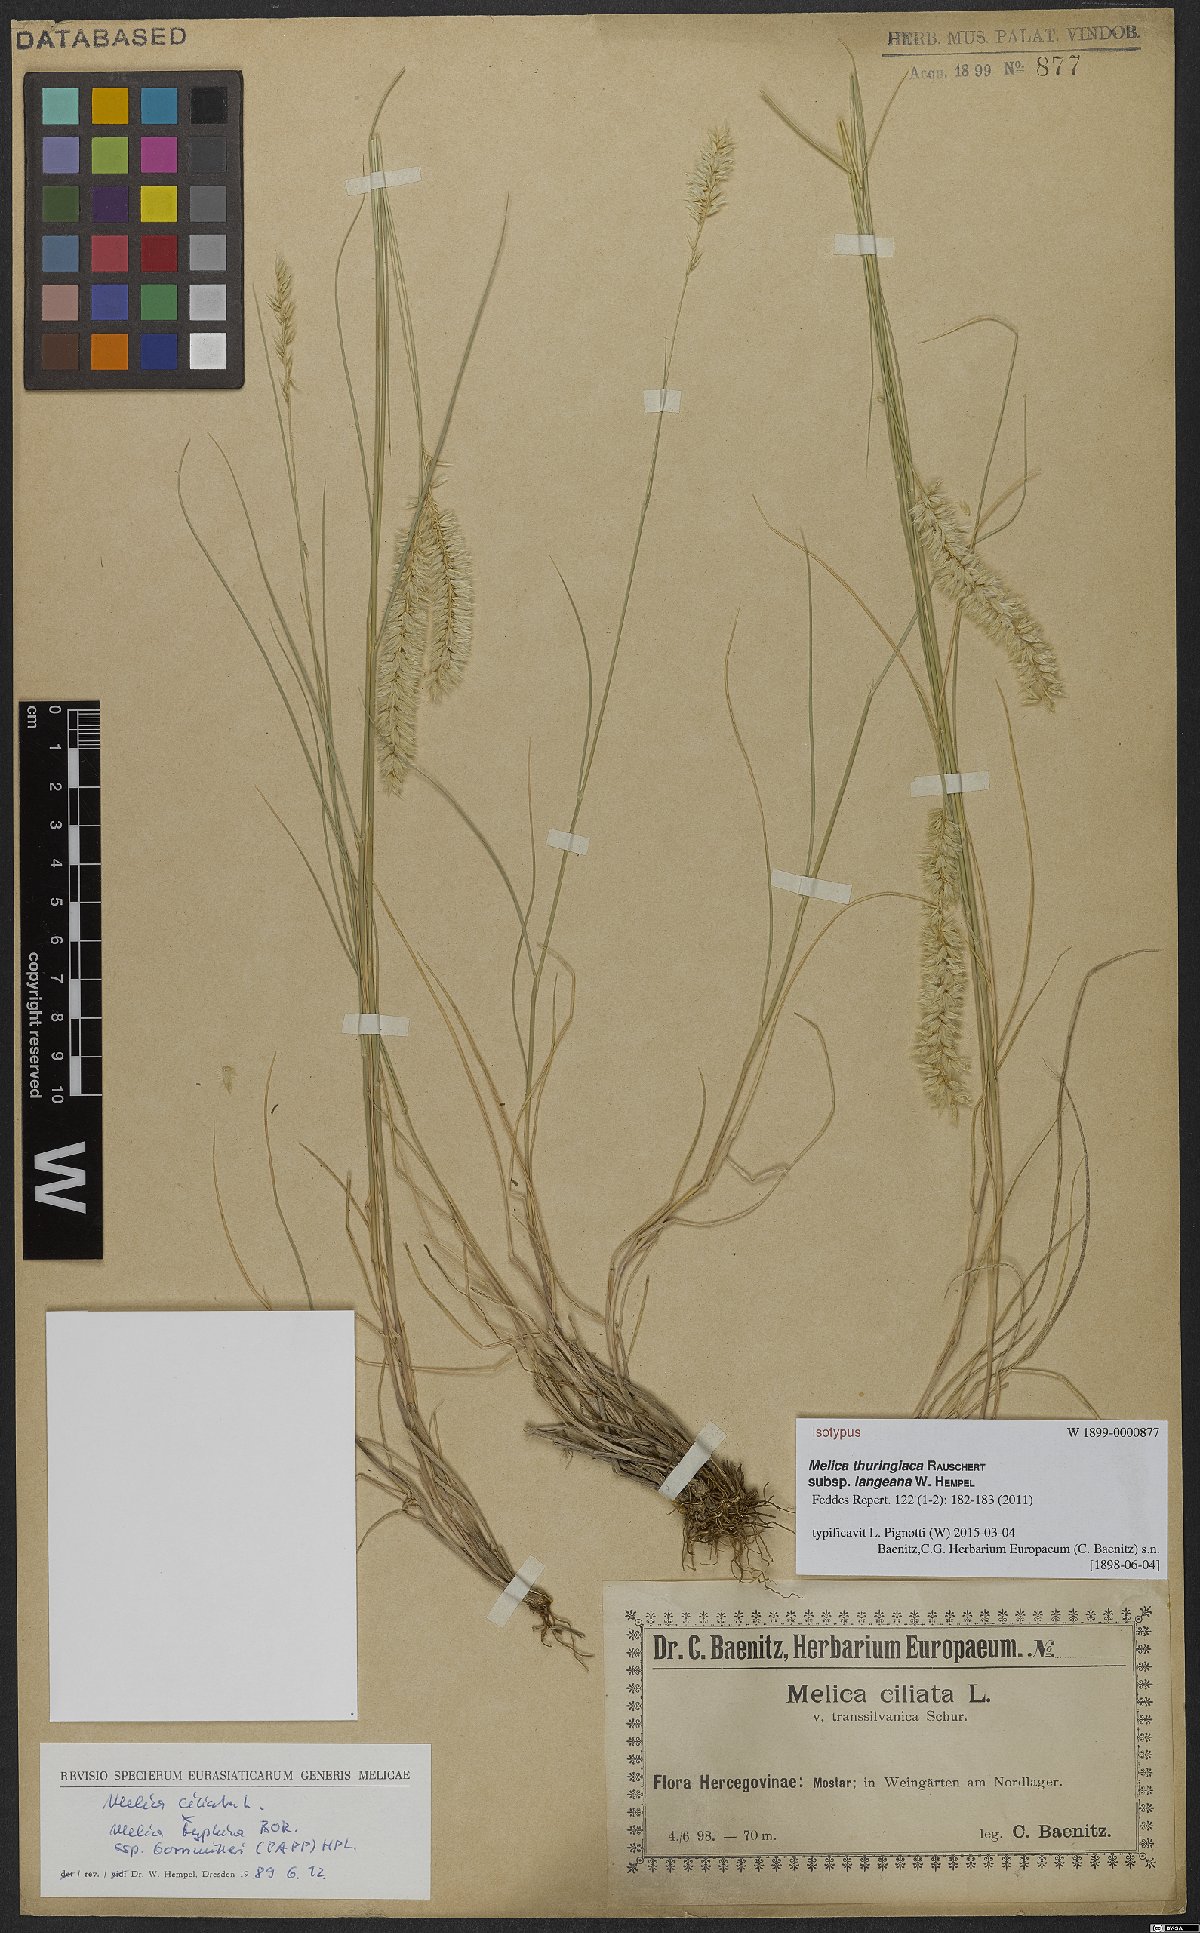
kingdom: Plantae
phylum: Tracheophyta
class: Liliopsida
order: Poales
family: Poaceae
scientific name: Poaceae
